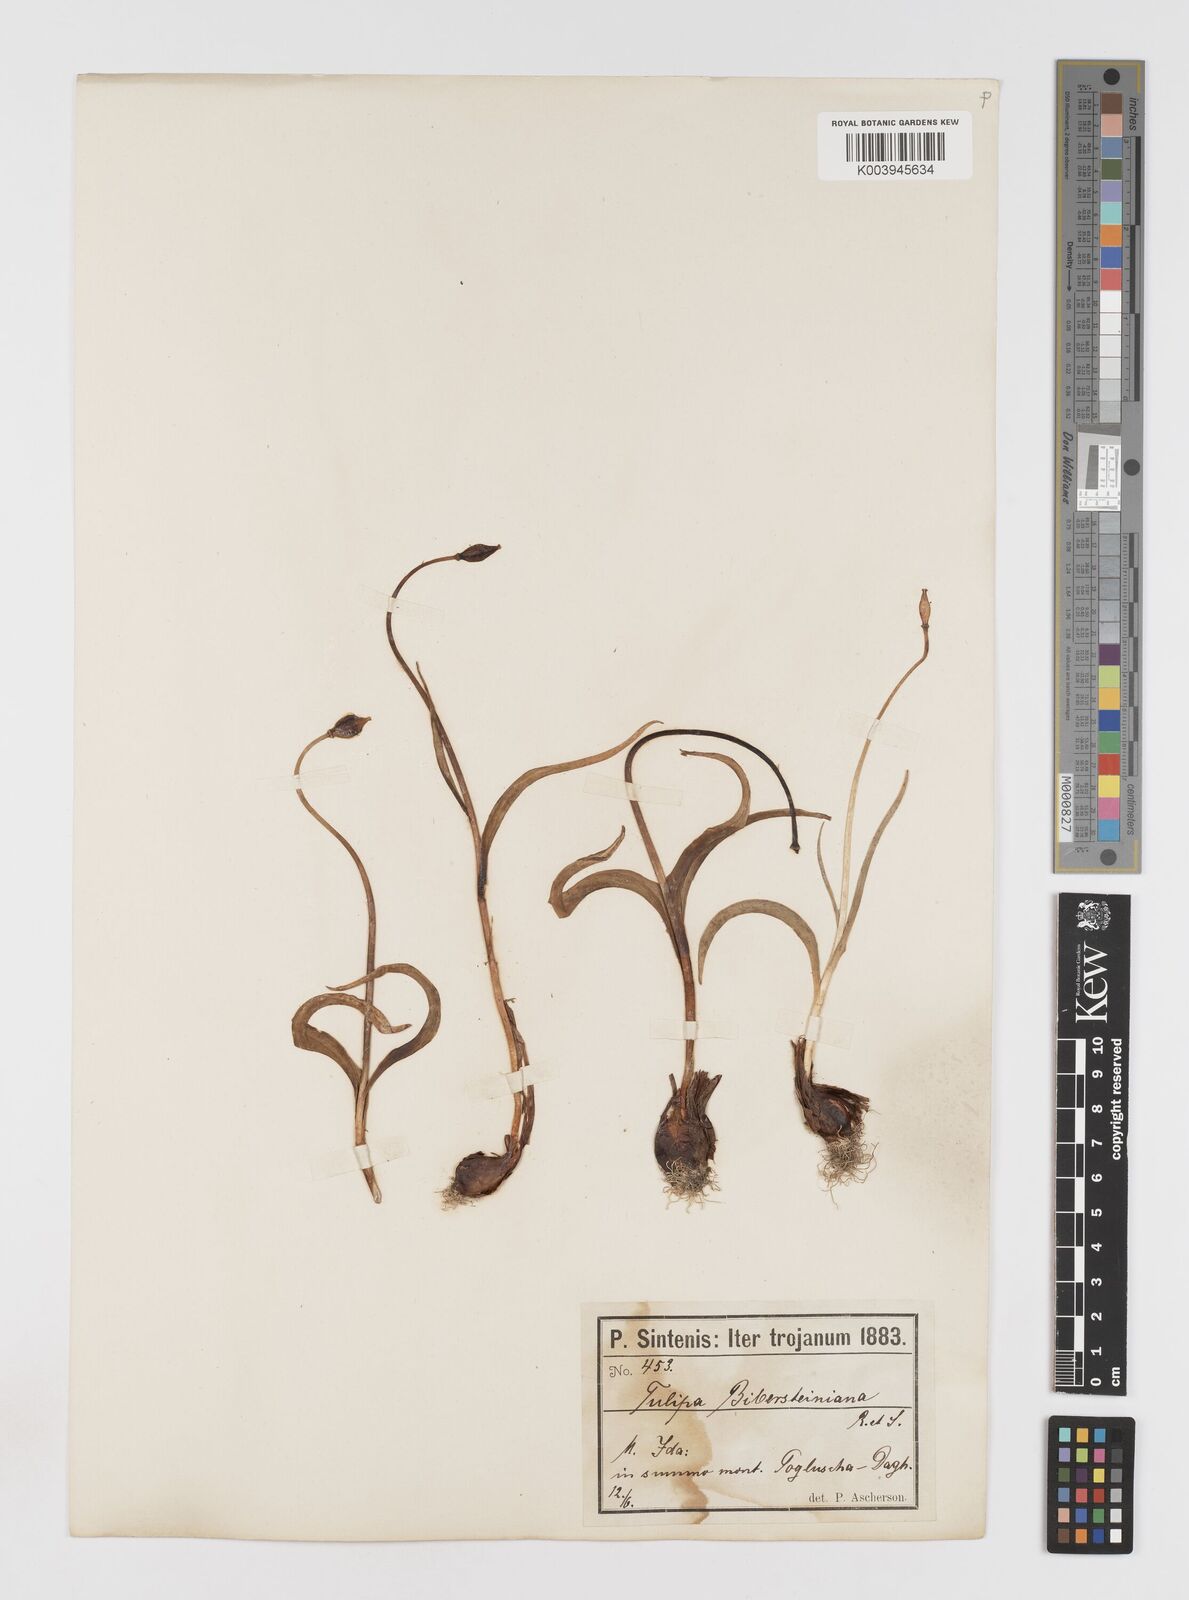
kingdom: Plantae
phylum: Tracheophyta
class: Liliopsida
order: Liliales
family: Liliaceae
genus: Tulipa
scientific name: Tulipa sylvestris
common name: Wild tulip
